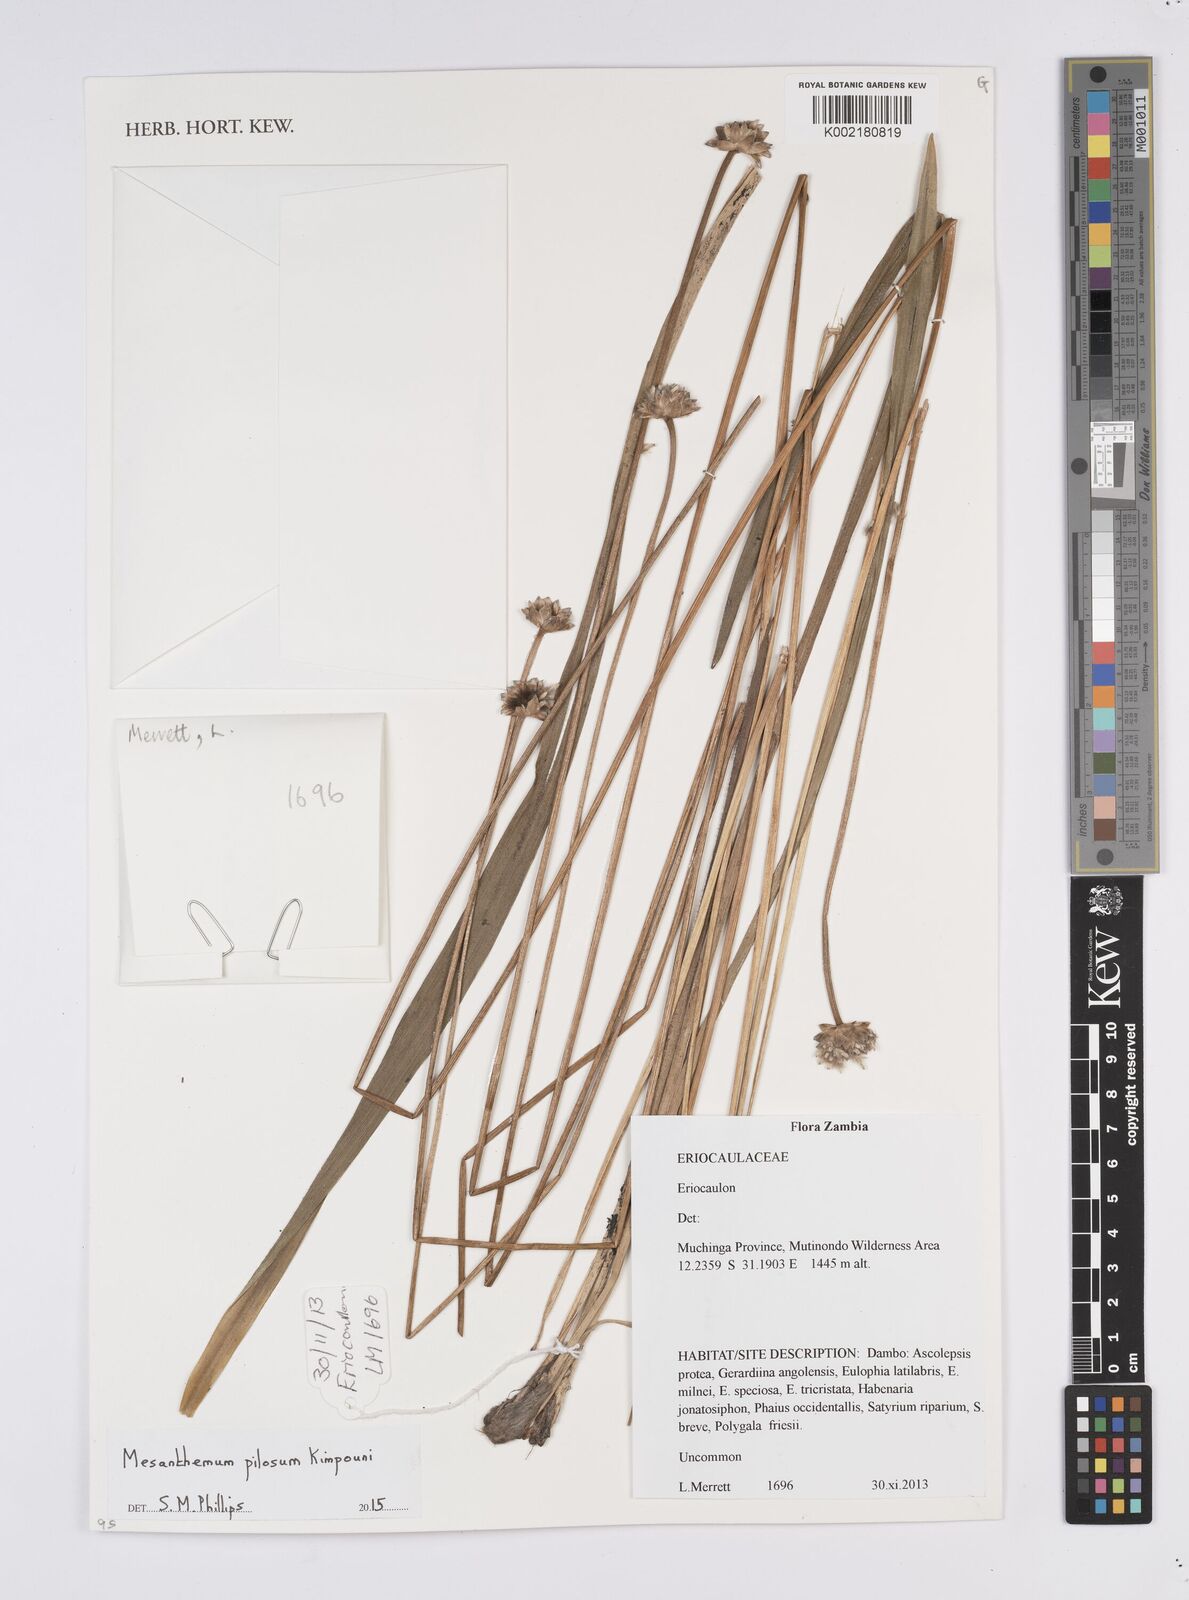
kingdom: Plantae
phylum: Tracheophyta
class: Liliopsida
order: Poales
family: Eriocaulaceae
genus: Mesanthemum
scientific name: Mesanthemum pilosum
